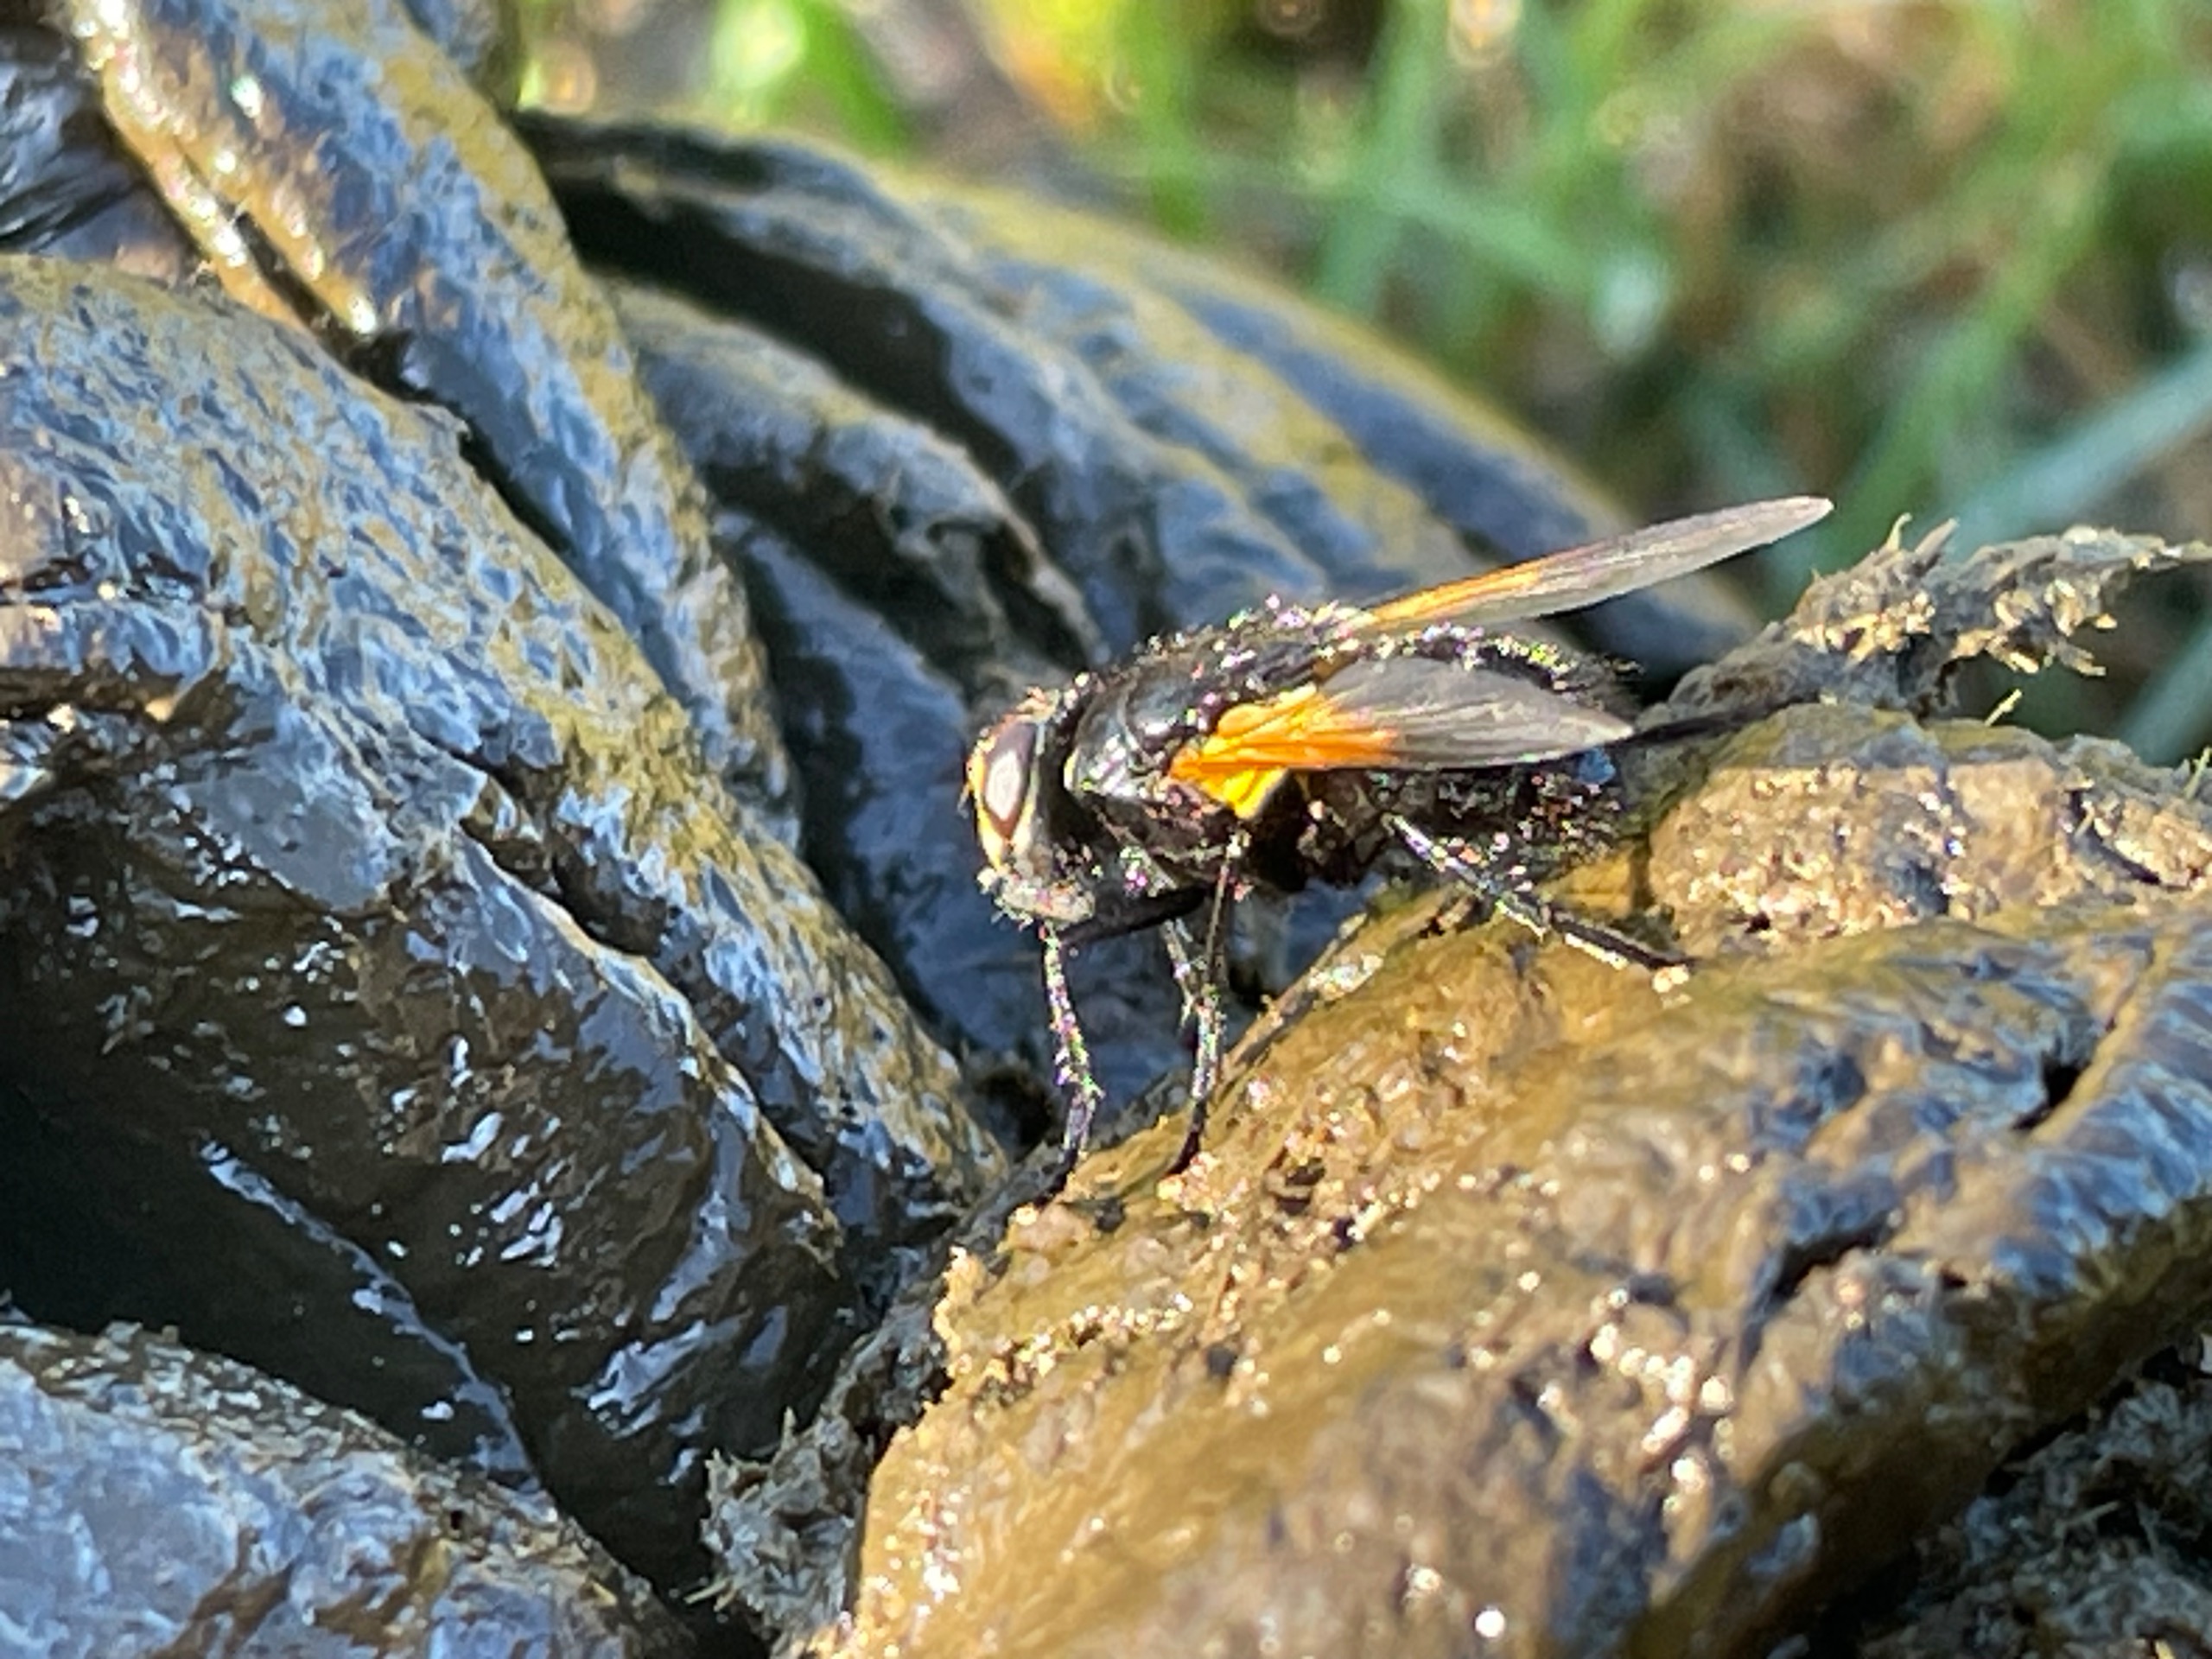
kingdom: Animalia
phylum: Arthropoda
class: Insecta
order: Diptera
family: Muscidae
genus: Mesembrina
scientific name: Mesembrina meridiana
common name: Gulvinget flue
